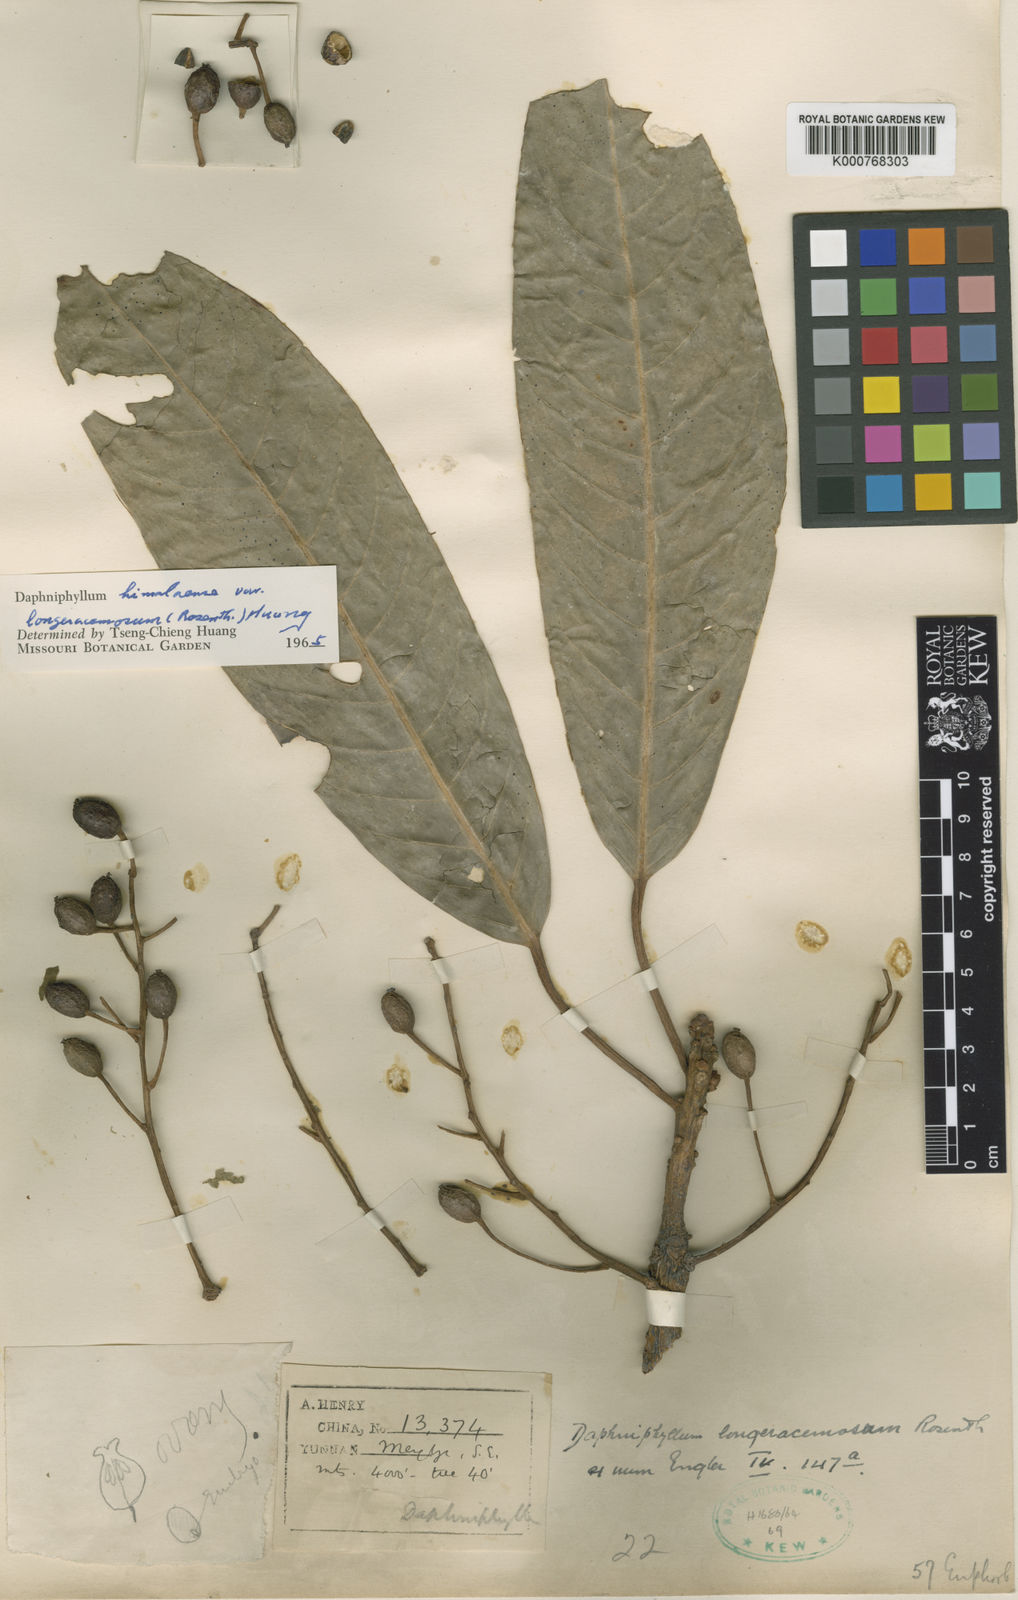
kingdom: Plantae
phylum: Tracheophyta
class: Magnoliopsida
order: Saxifragales
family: Daphniphyllaceae
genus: Daphniphyllum
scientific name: Daphniphyllum
